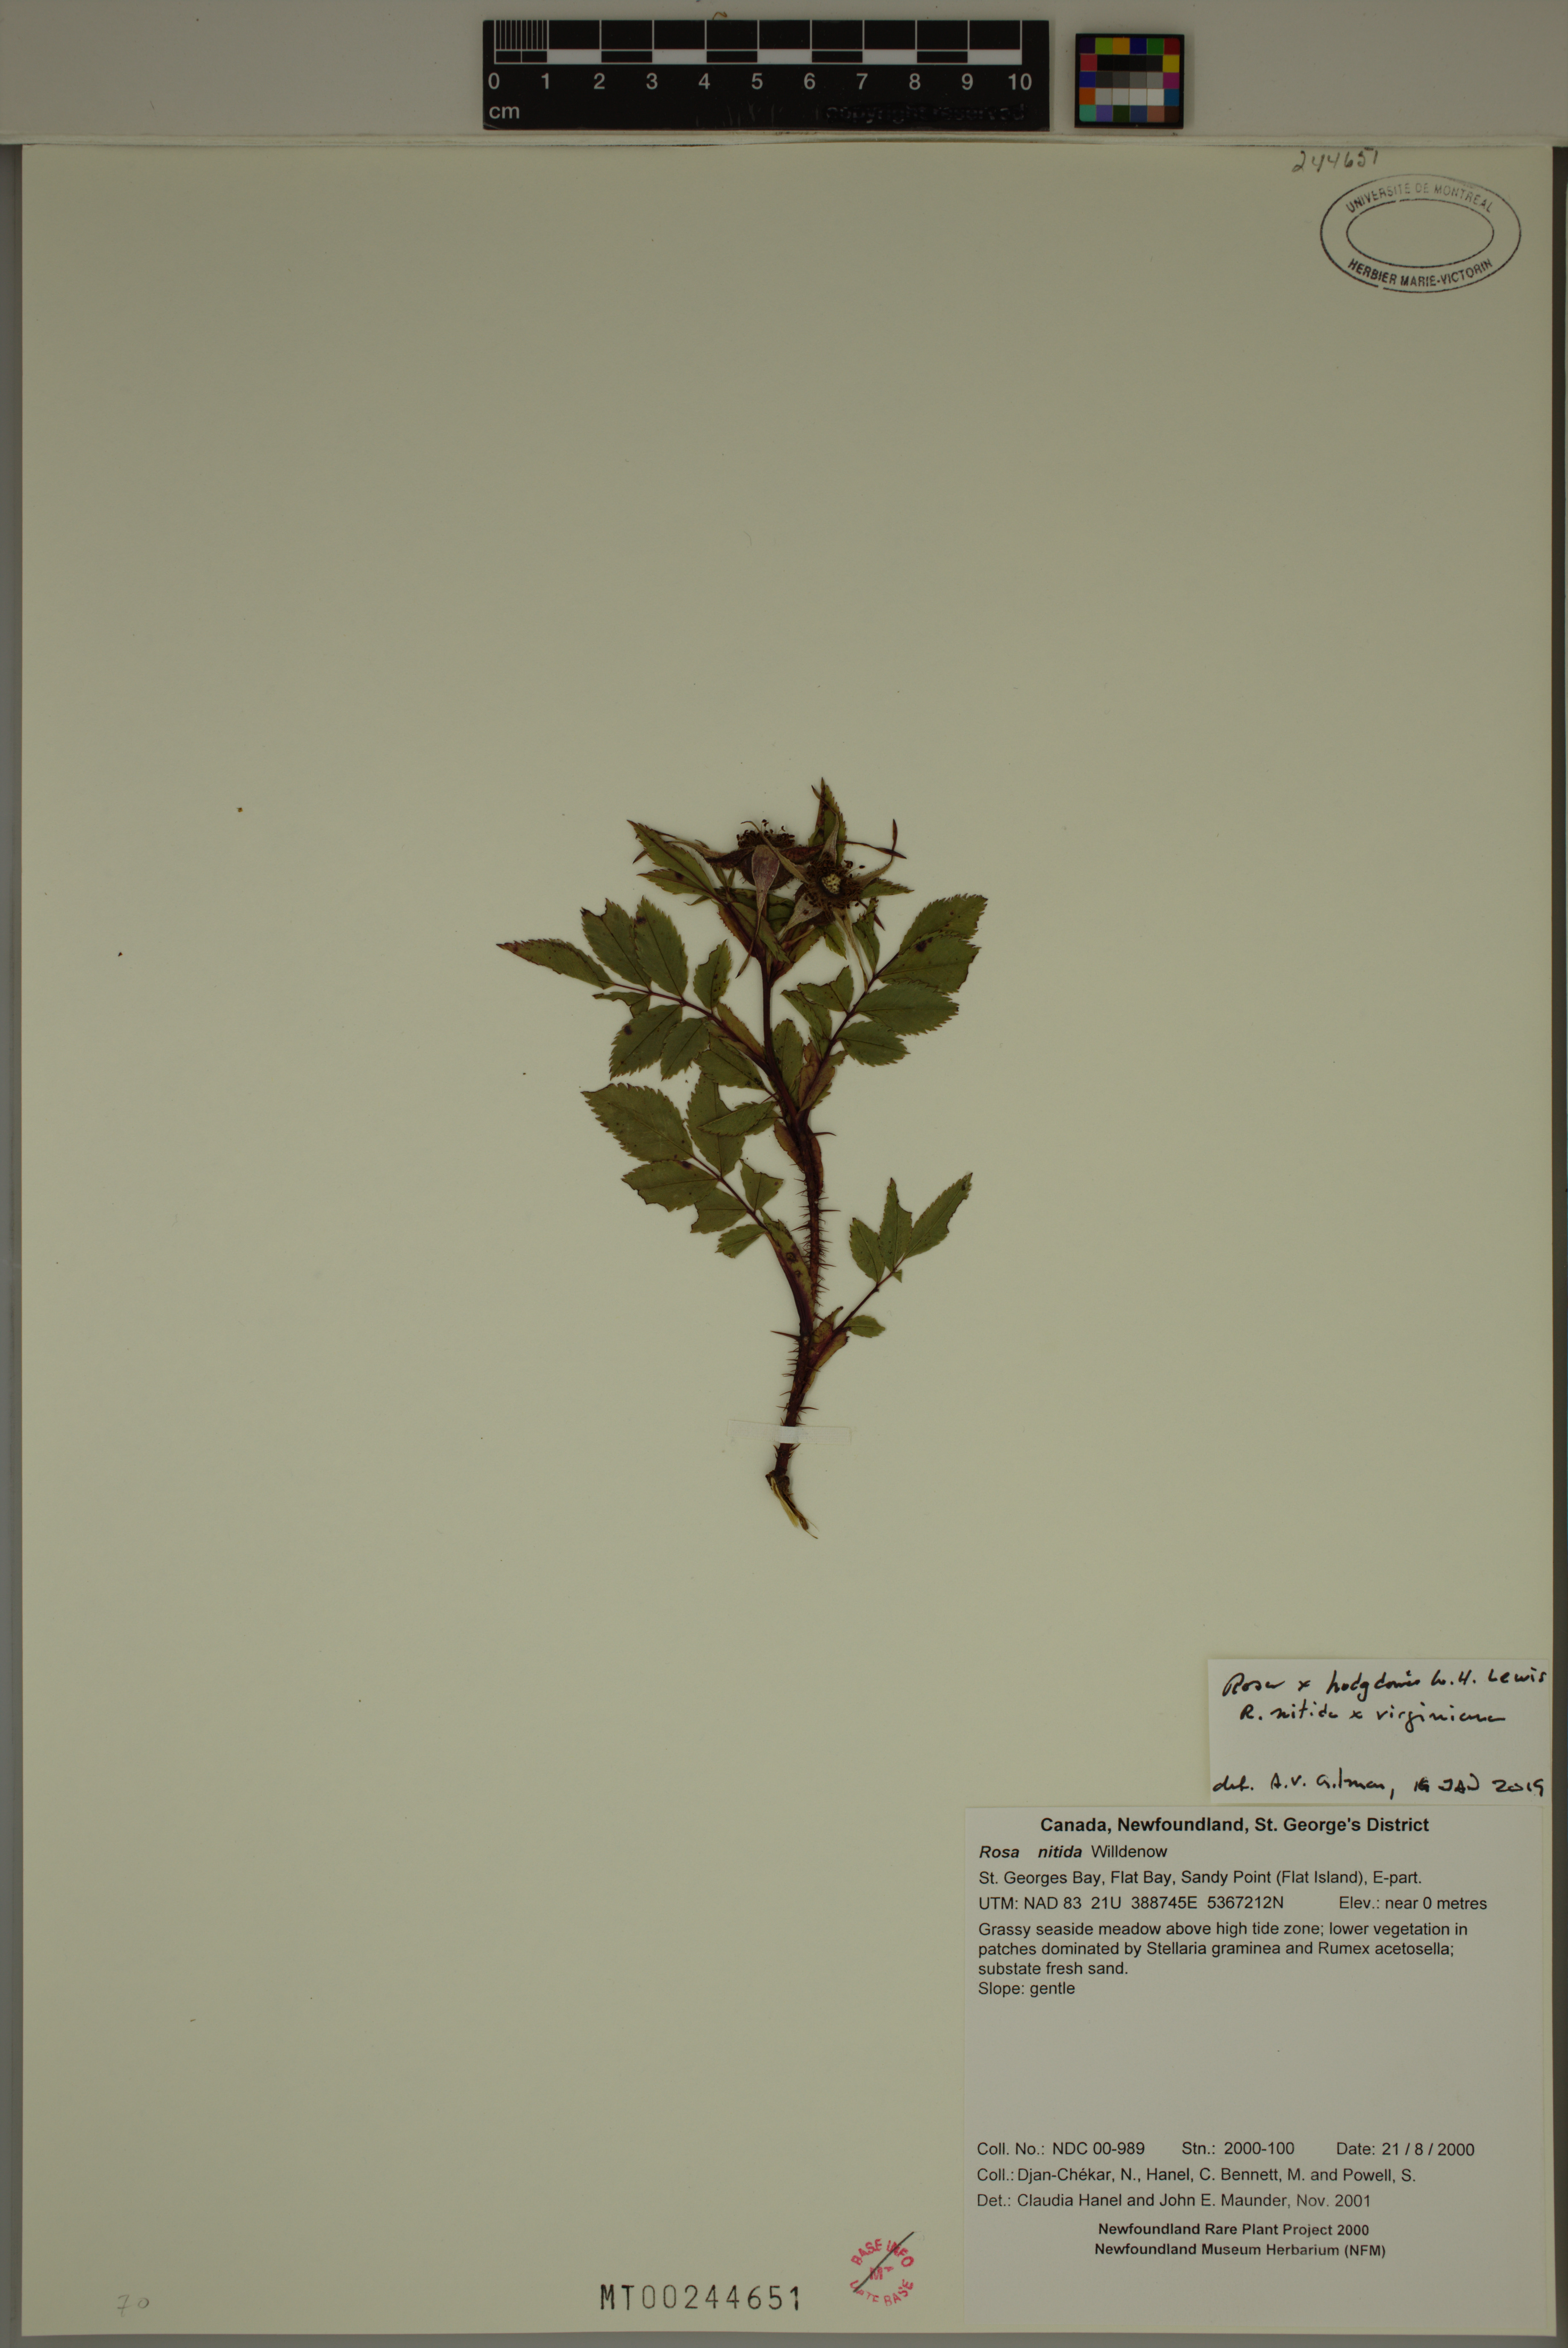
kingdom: Plantae
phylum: Tracheophyta
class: Magnoliopsida
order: Rosales
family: Rosaceae
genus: Rosa
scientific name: Rosa hodgdonii
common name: Hodgdon’s rose
